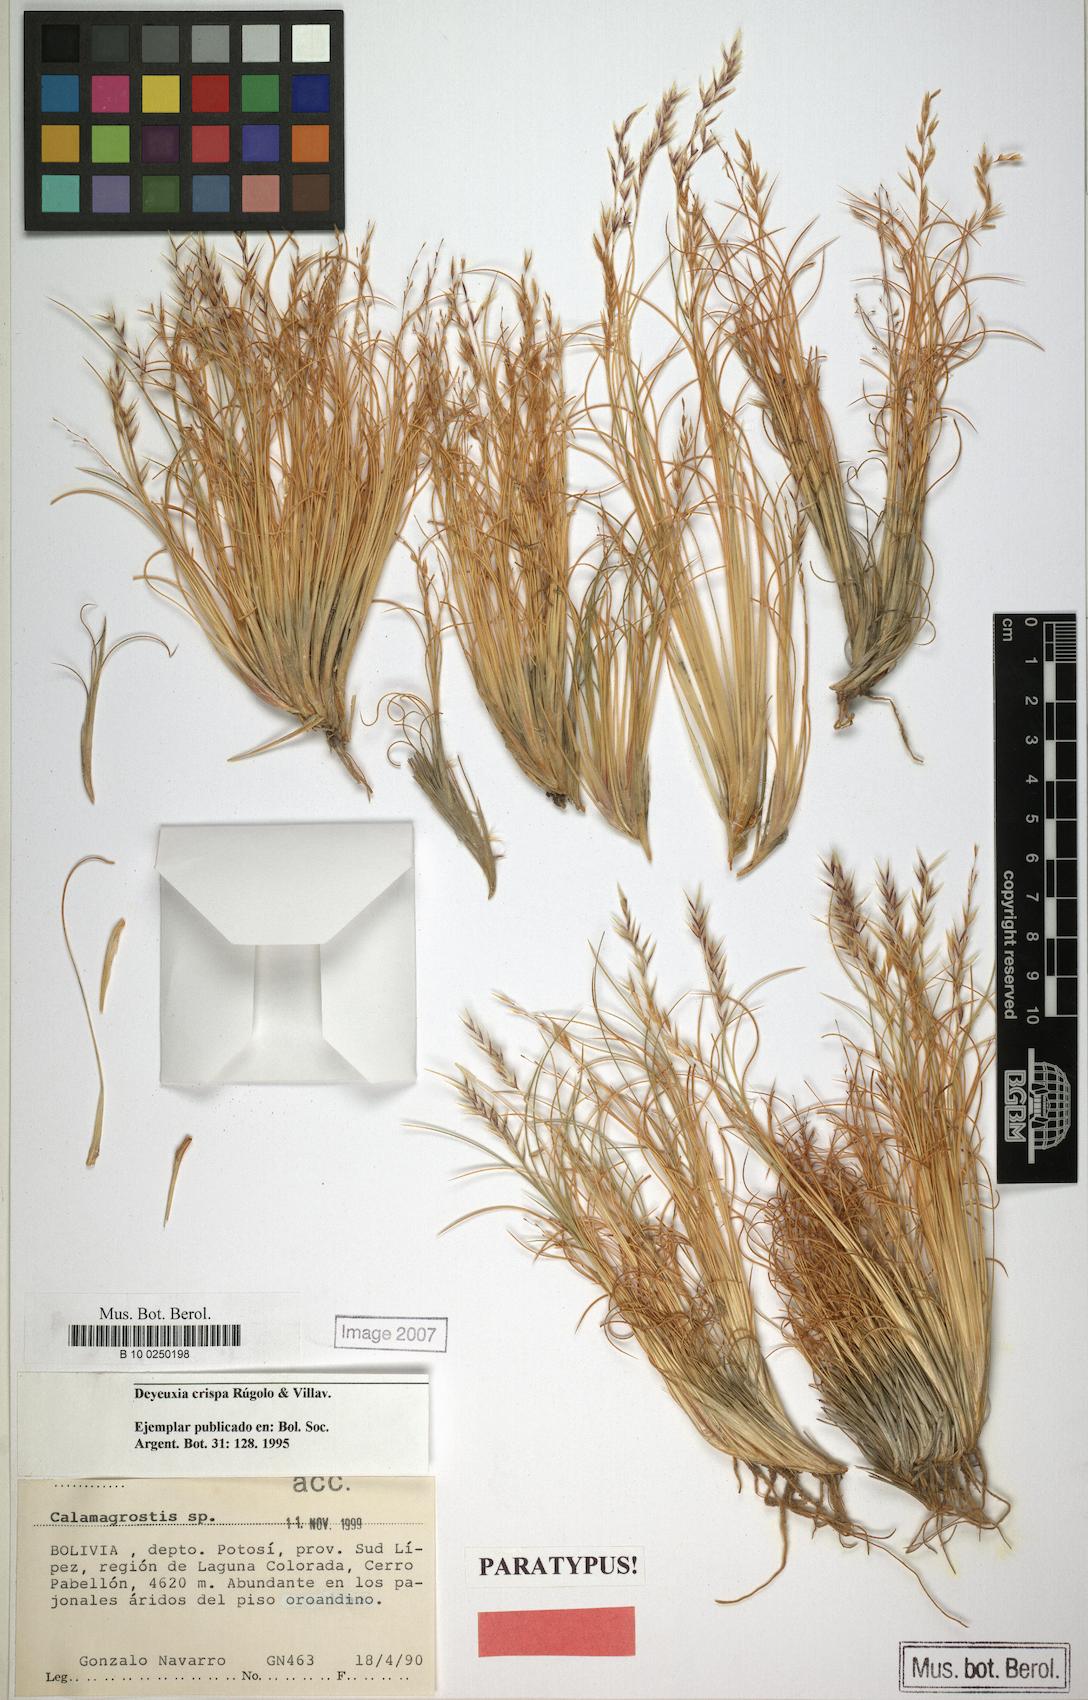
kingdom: Plantae
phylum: Tracheophyta
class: Liliopsida
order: Poales
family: Poaceae
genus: Cinnagrostis
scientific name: Cinnagrostis crispa
